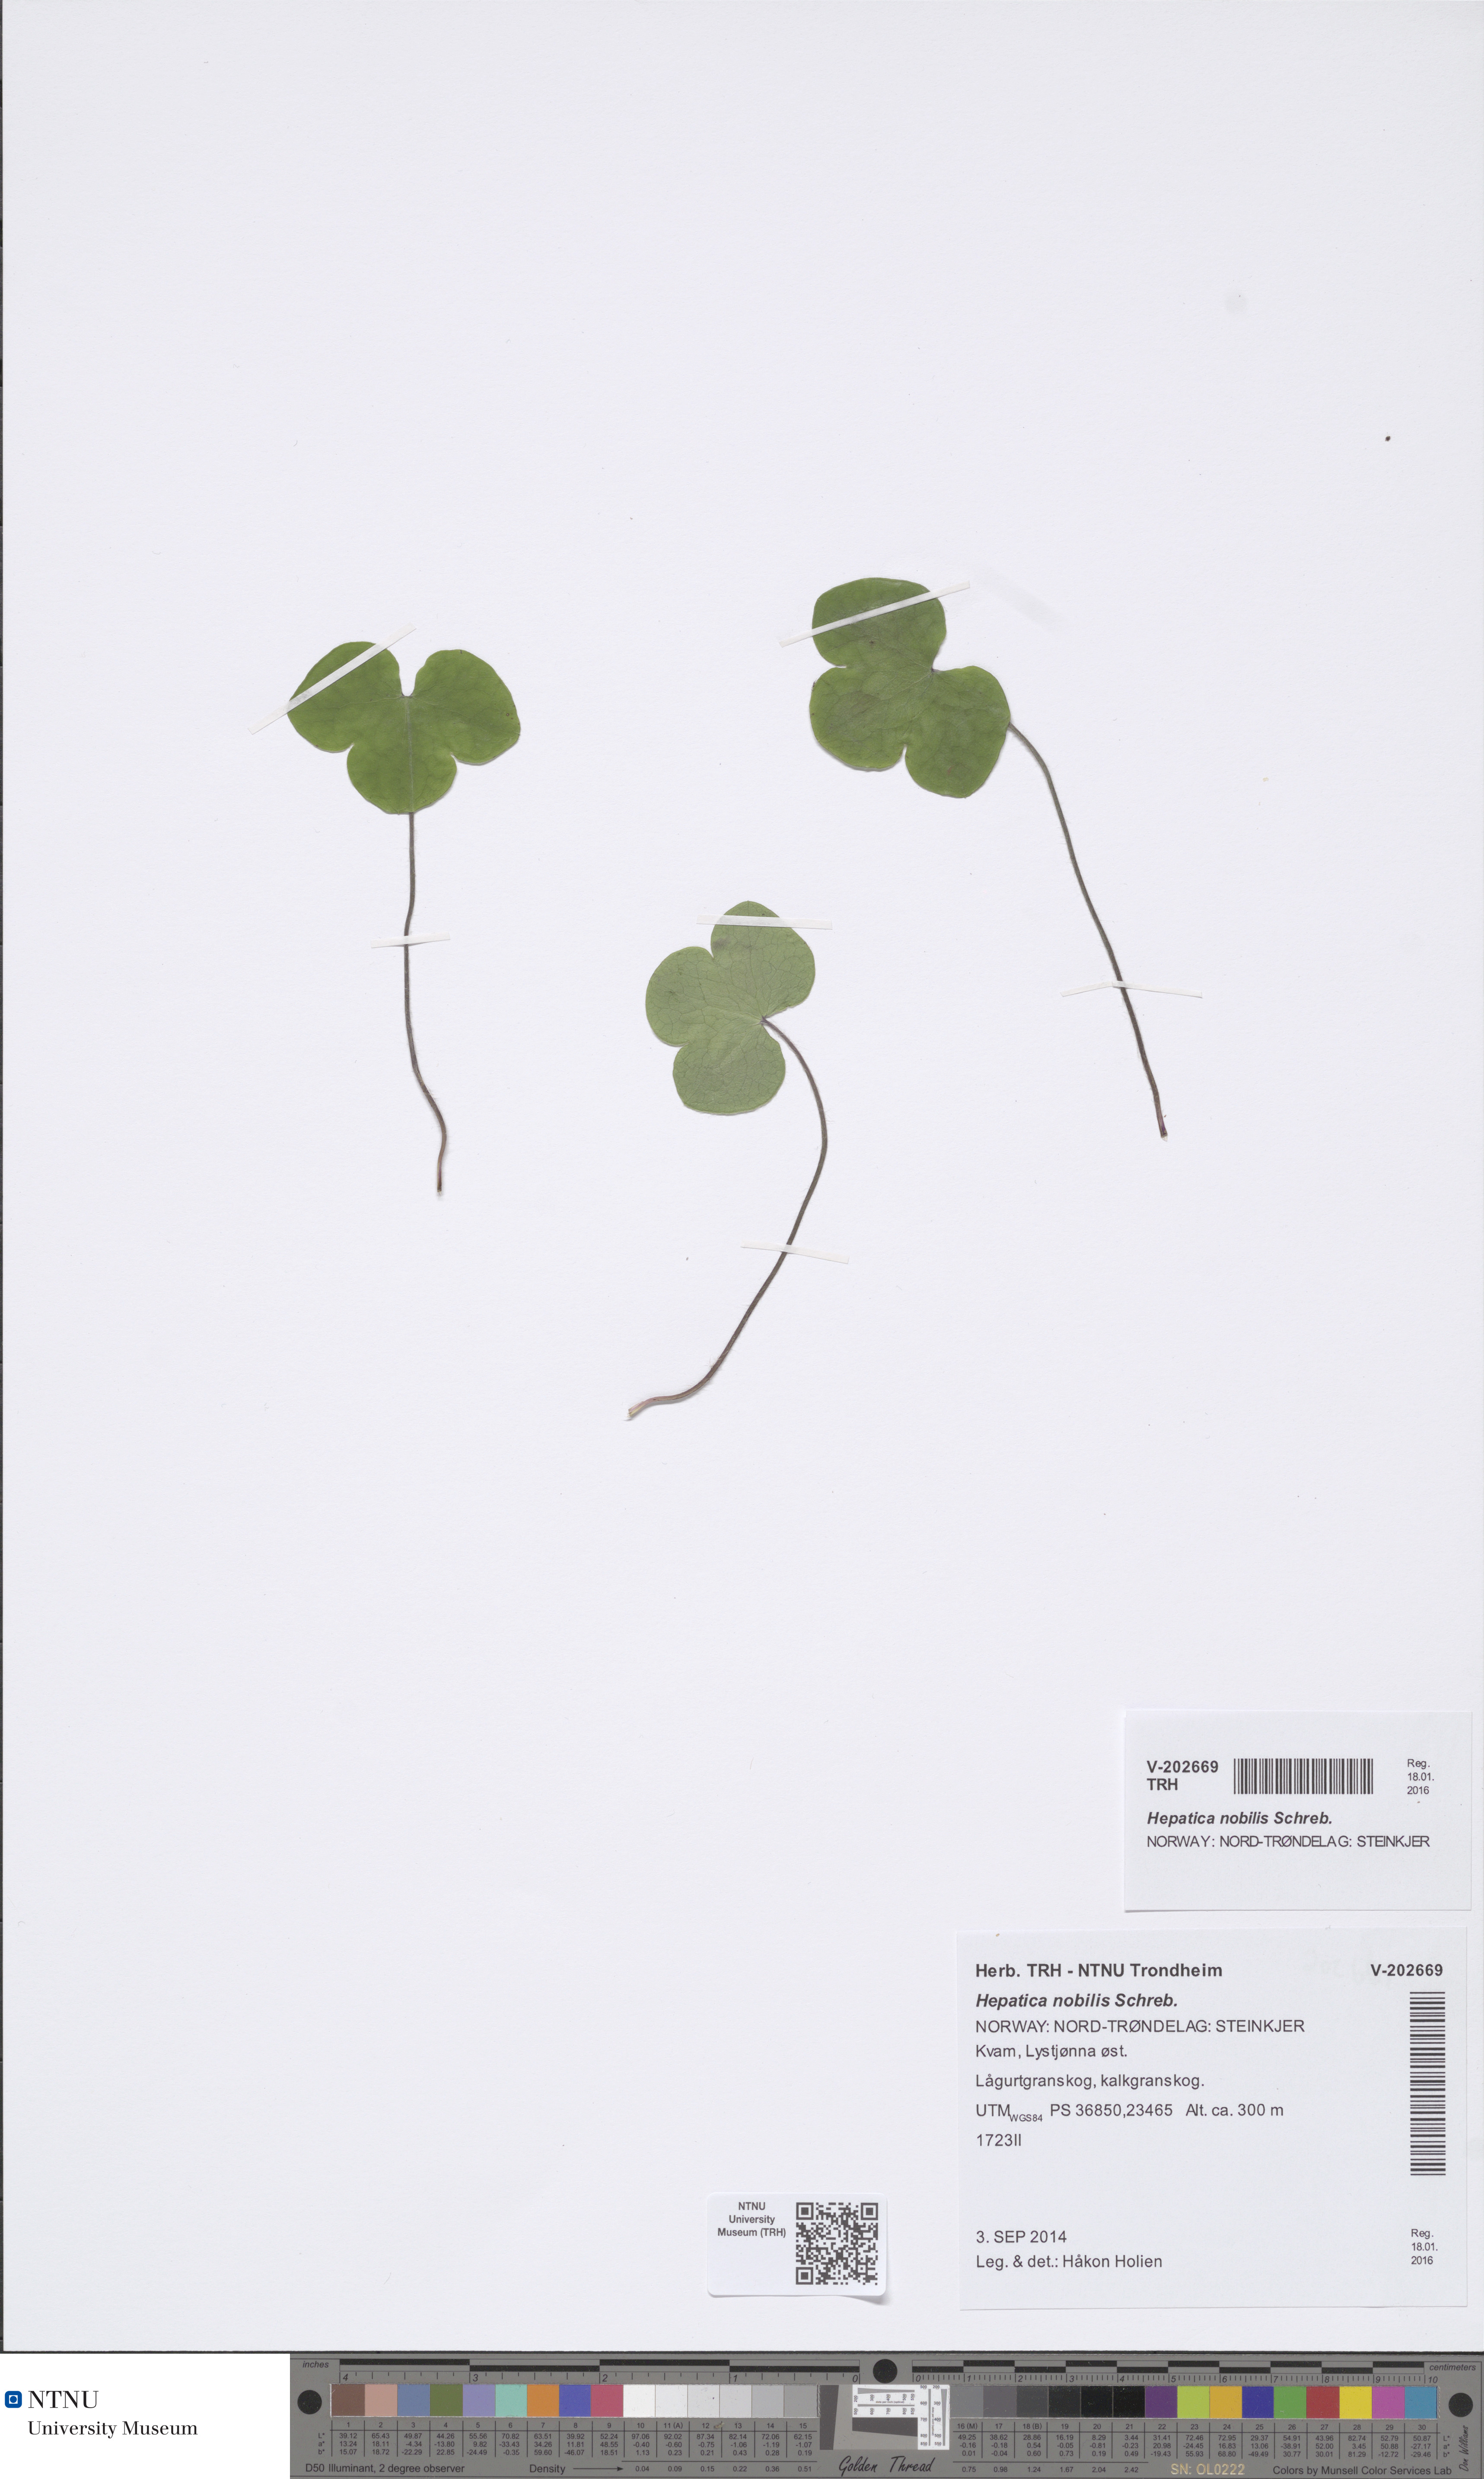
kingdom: Plantae
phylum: Tracheophyta
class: Magnoliopsida
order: Ranunculales
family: Ranunculaceae
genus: Hepatica
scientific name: Hepatica nobilis
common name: Liverleaf
